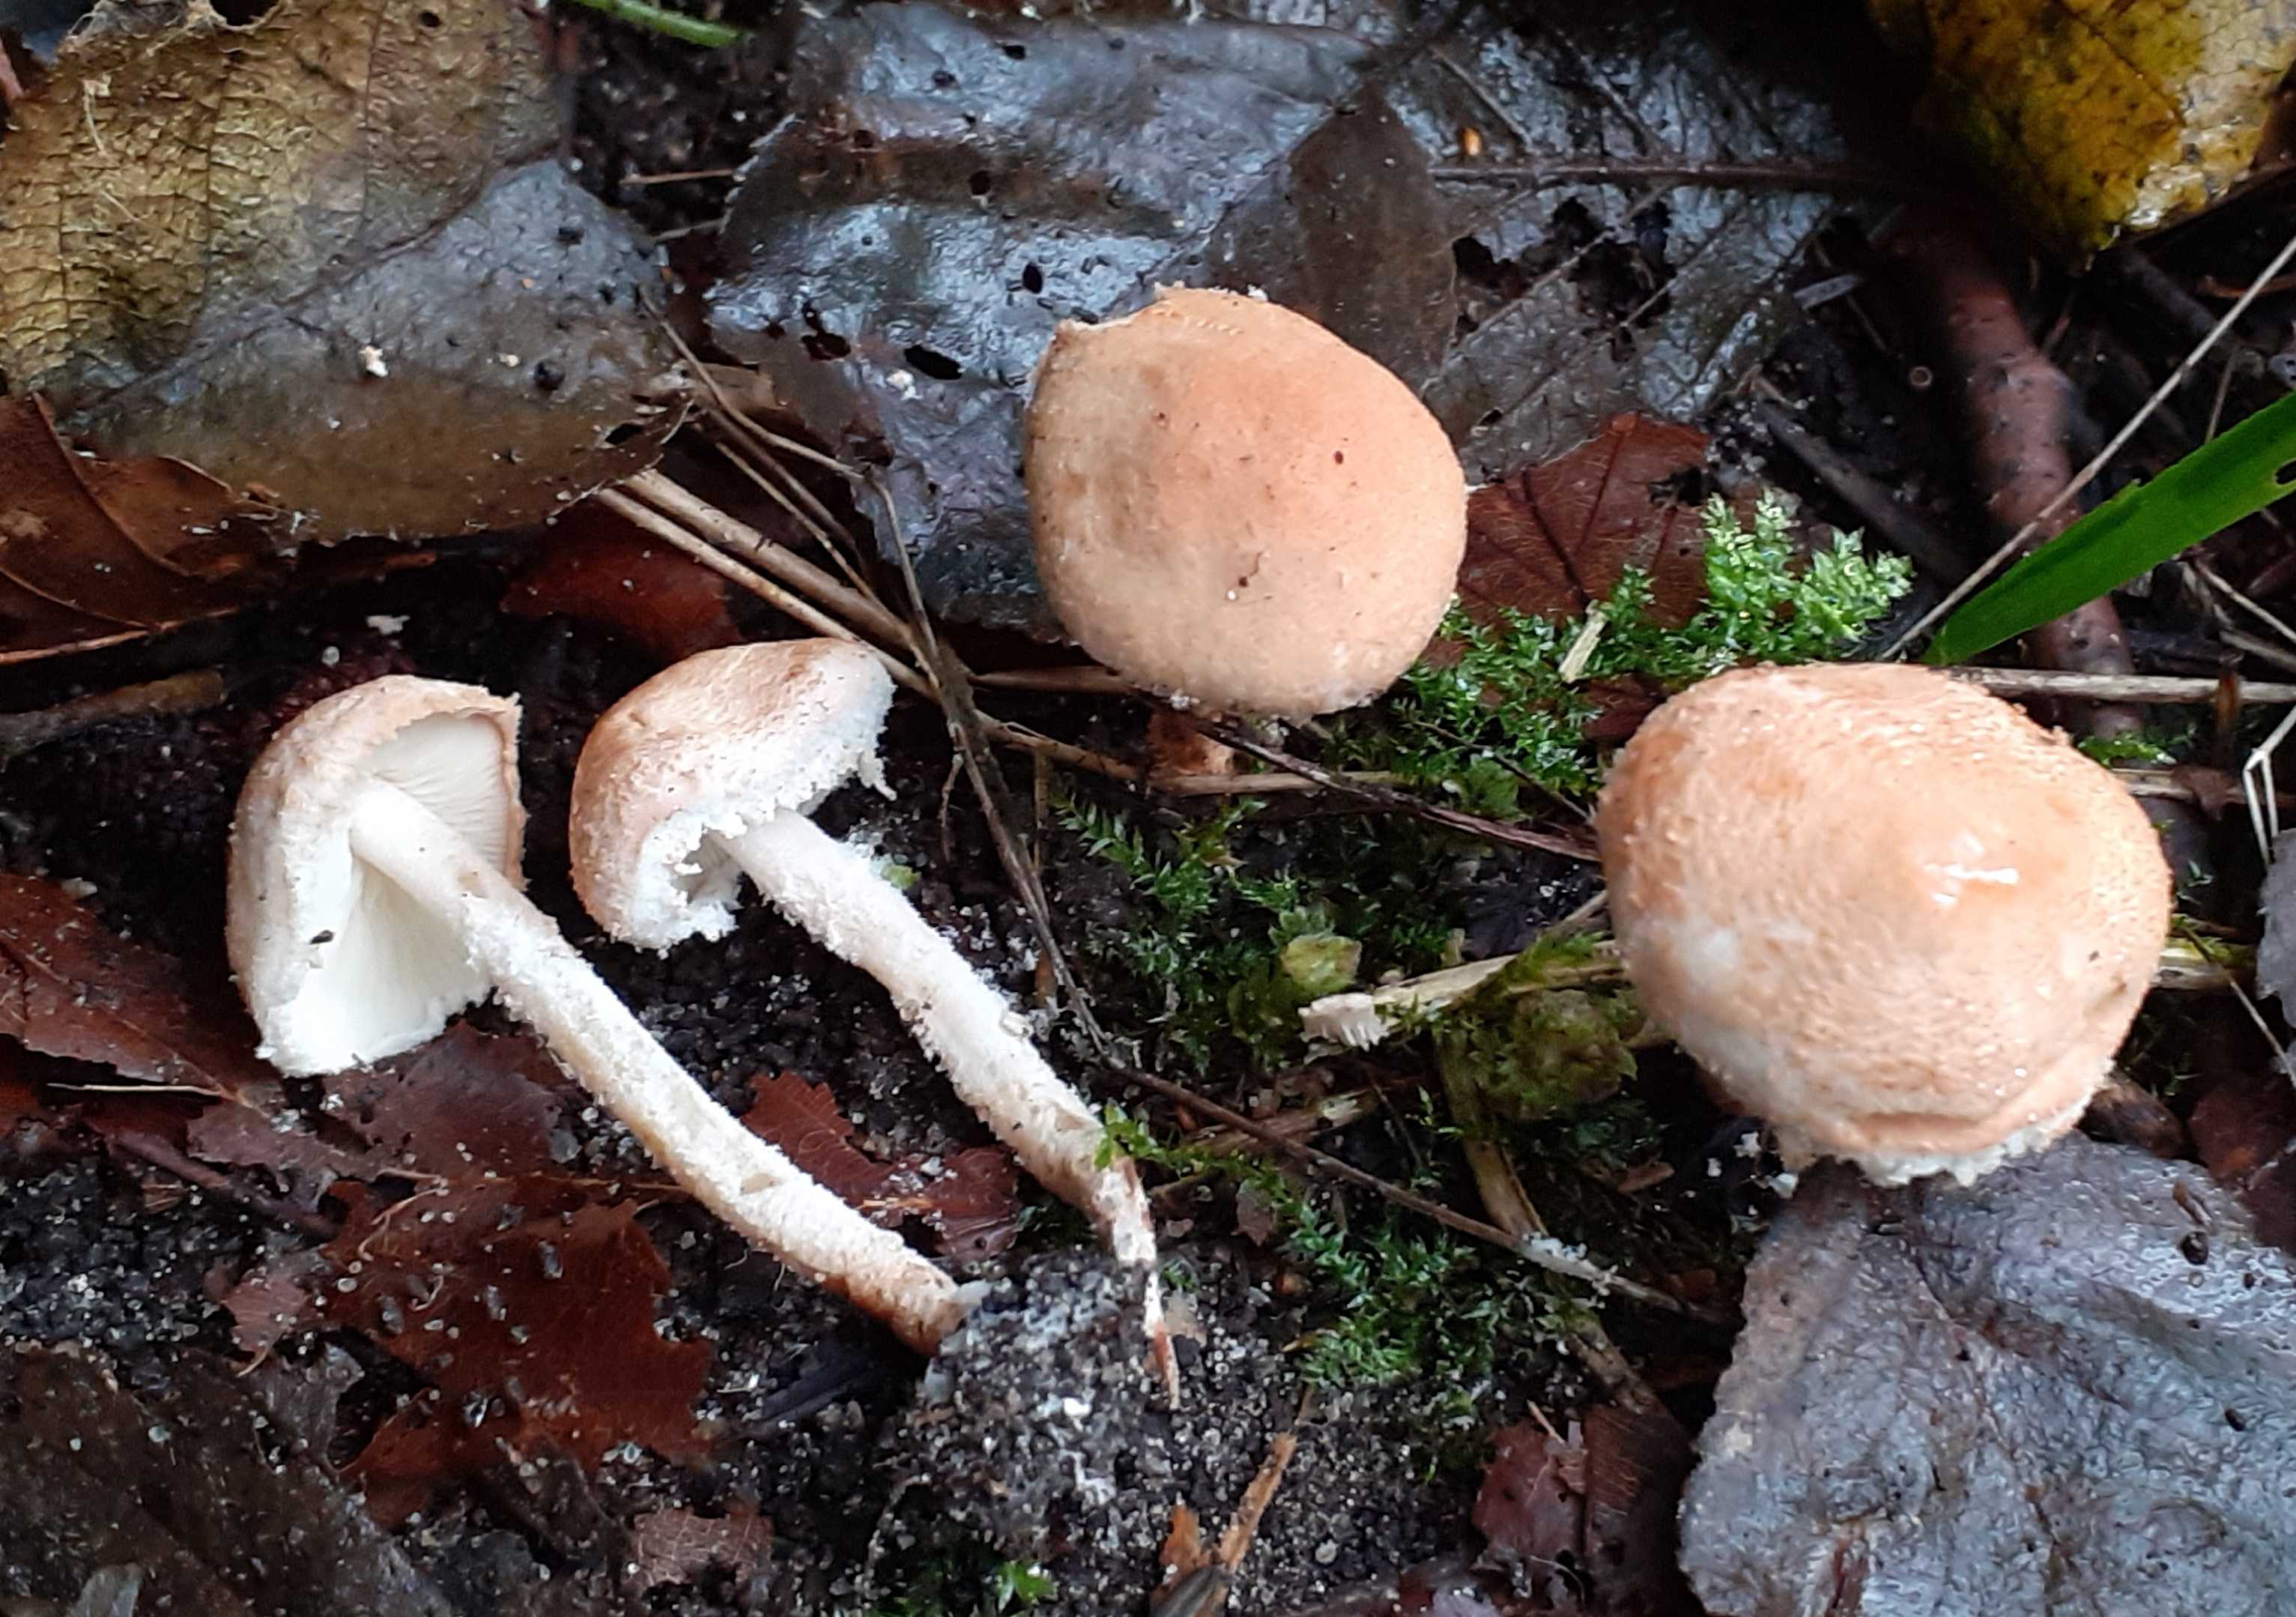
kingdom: Fungi
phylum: Basidiomycota
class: Agaricomycetes
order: Agaricales
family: Agaricaceae
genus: Cystolepiota
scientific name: Cystolepiota moelleri
